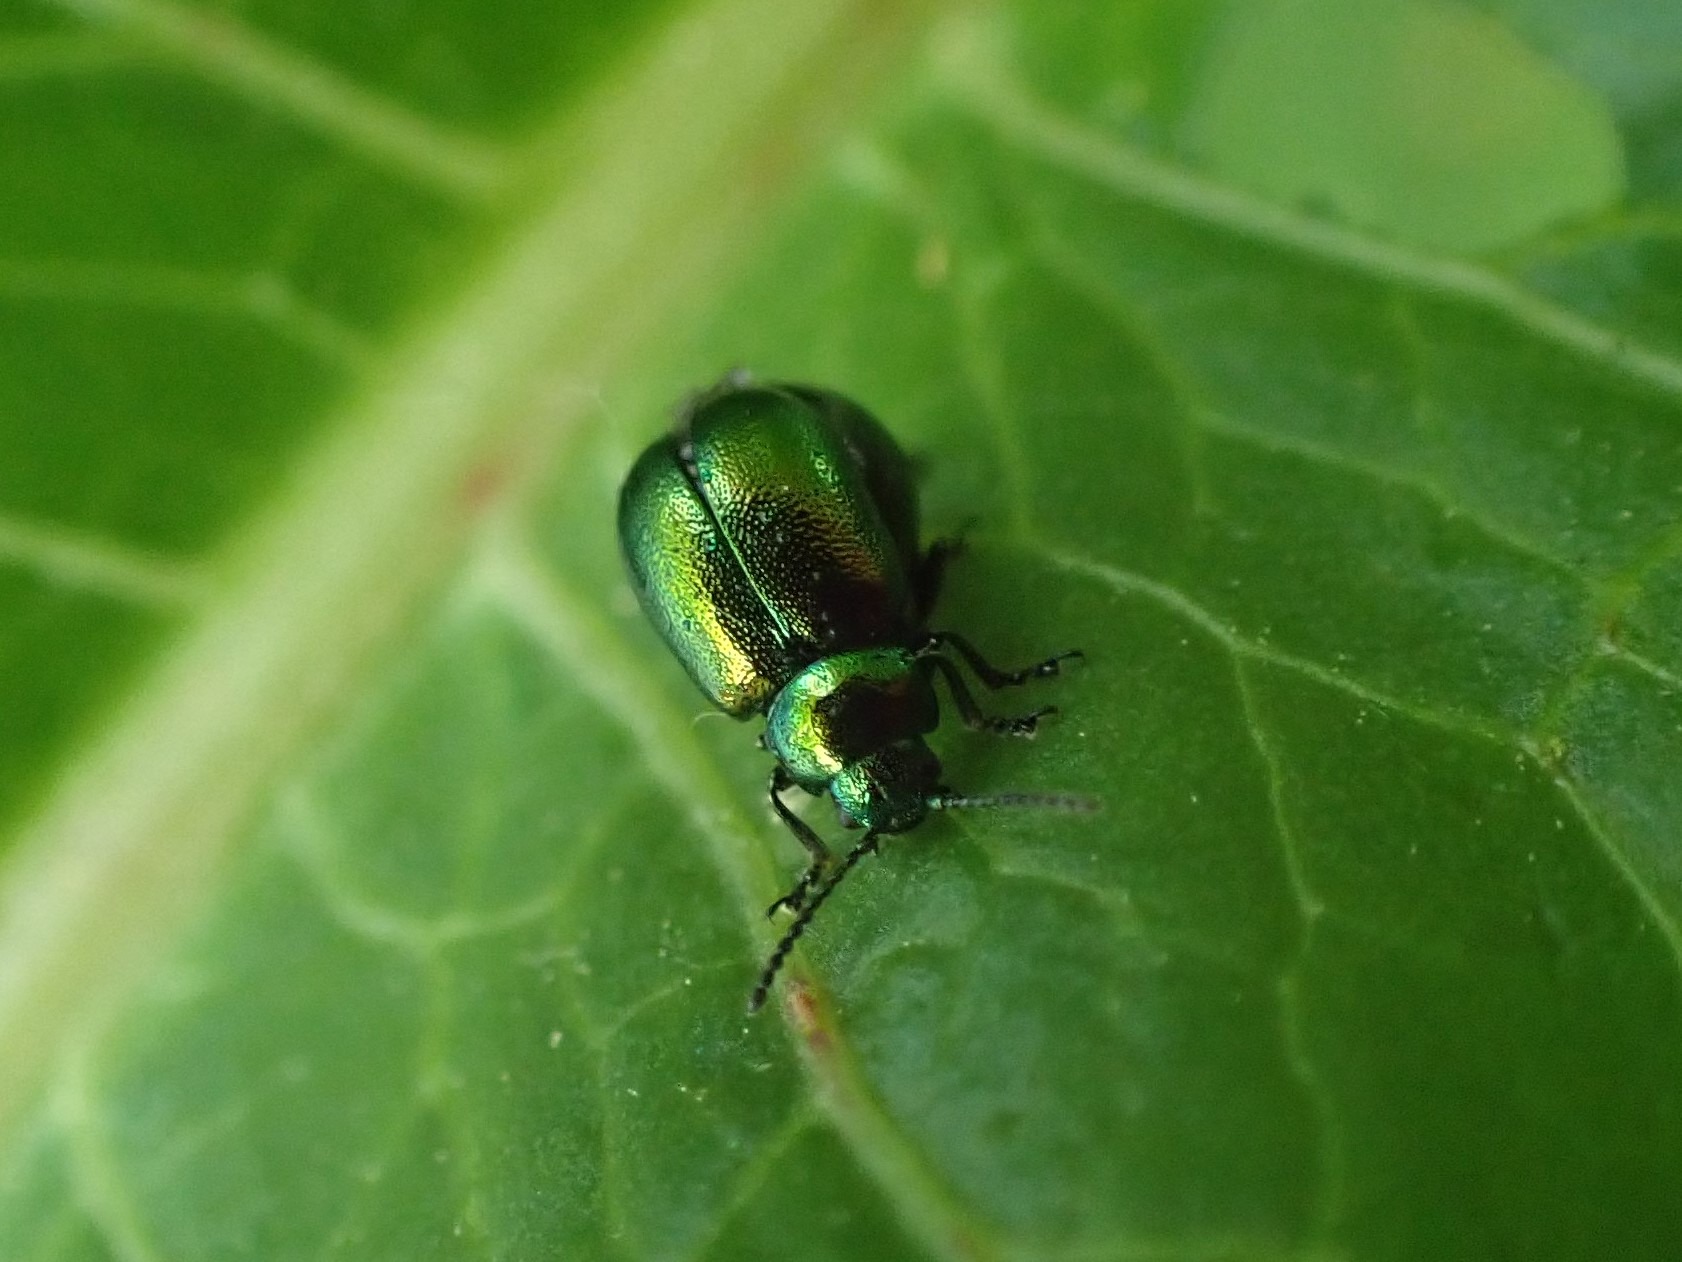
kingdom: Animalia
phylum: Arthropoda
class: Insecta
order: Coleoptera
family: Chrysomelidae
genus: Gastrophysa
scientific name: Gastrophysa viridula
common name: Skræppebladbille
